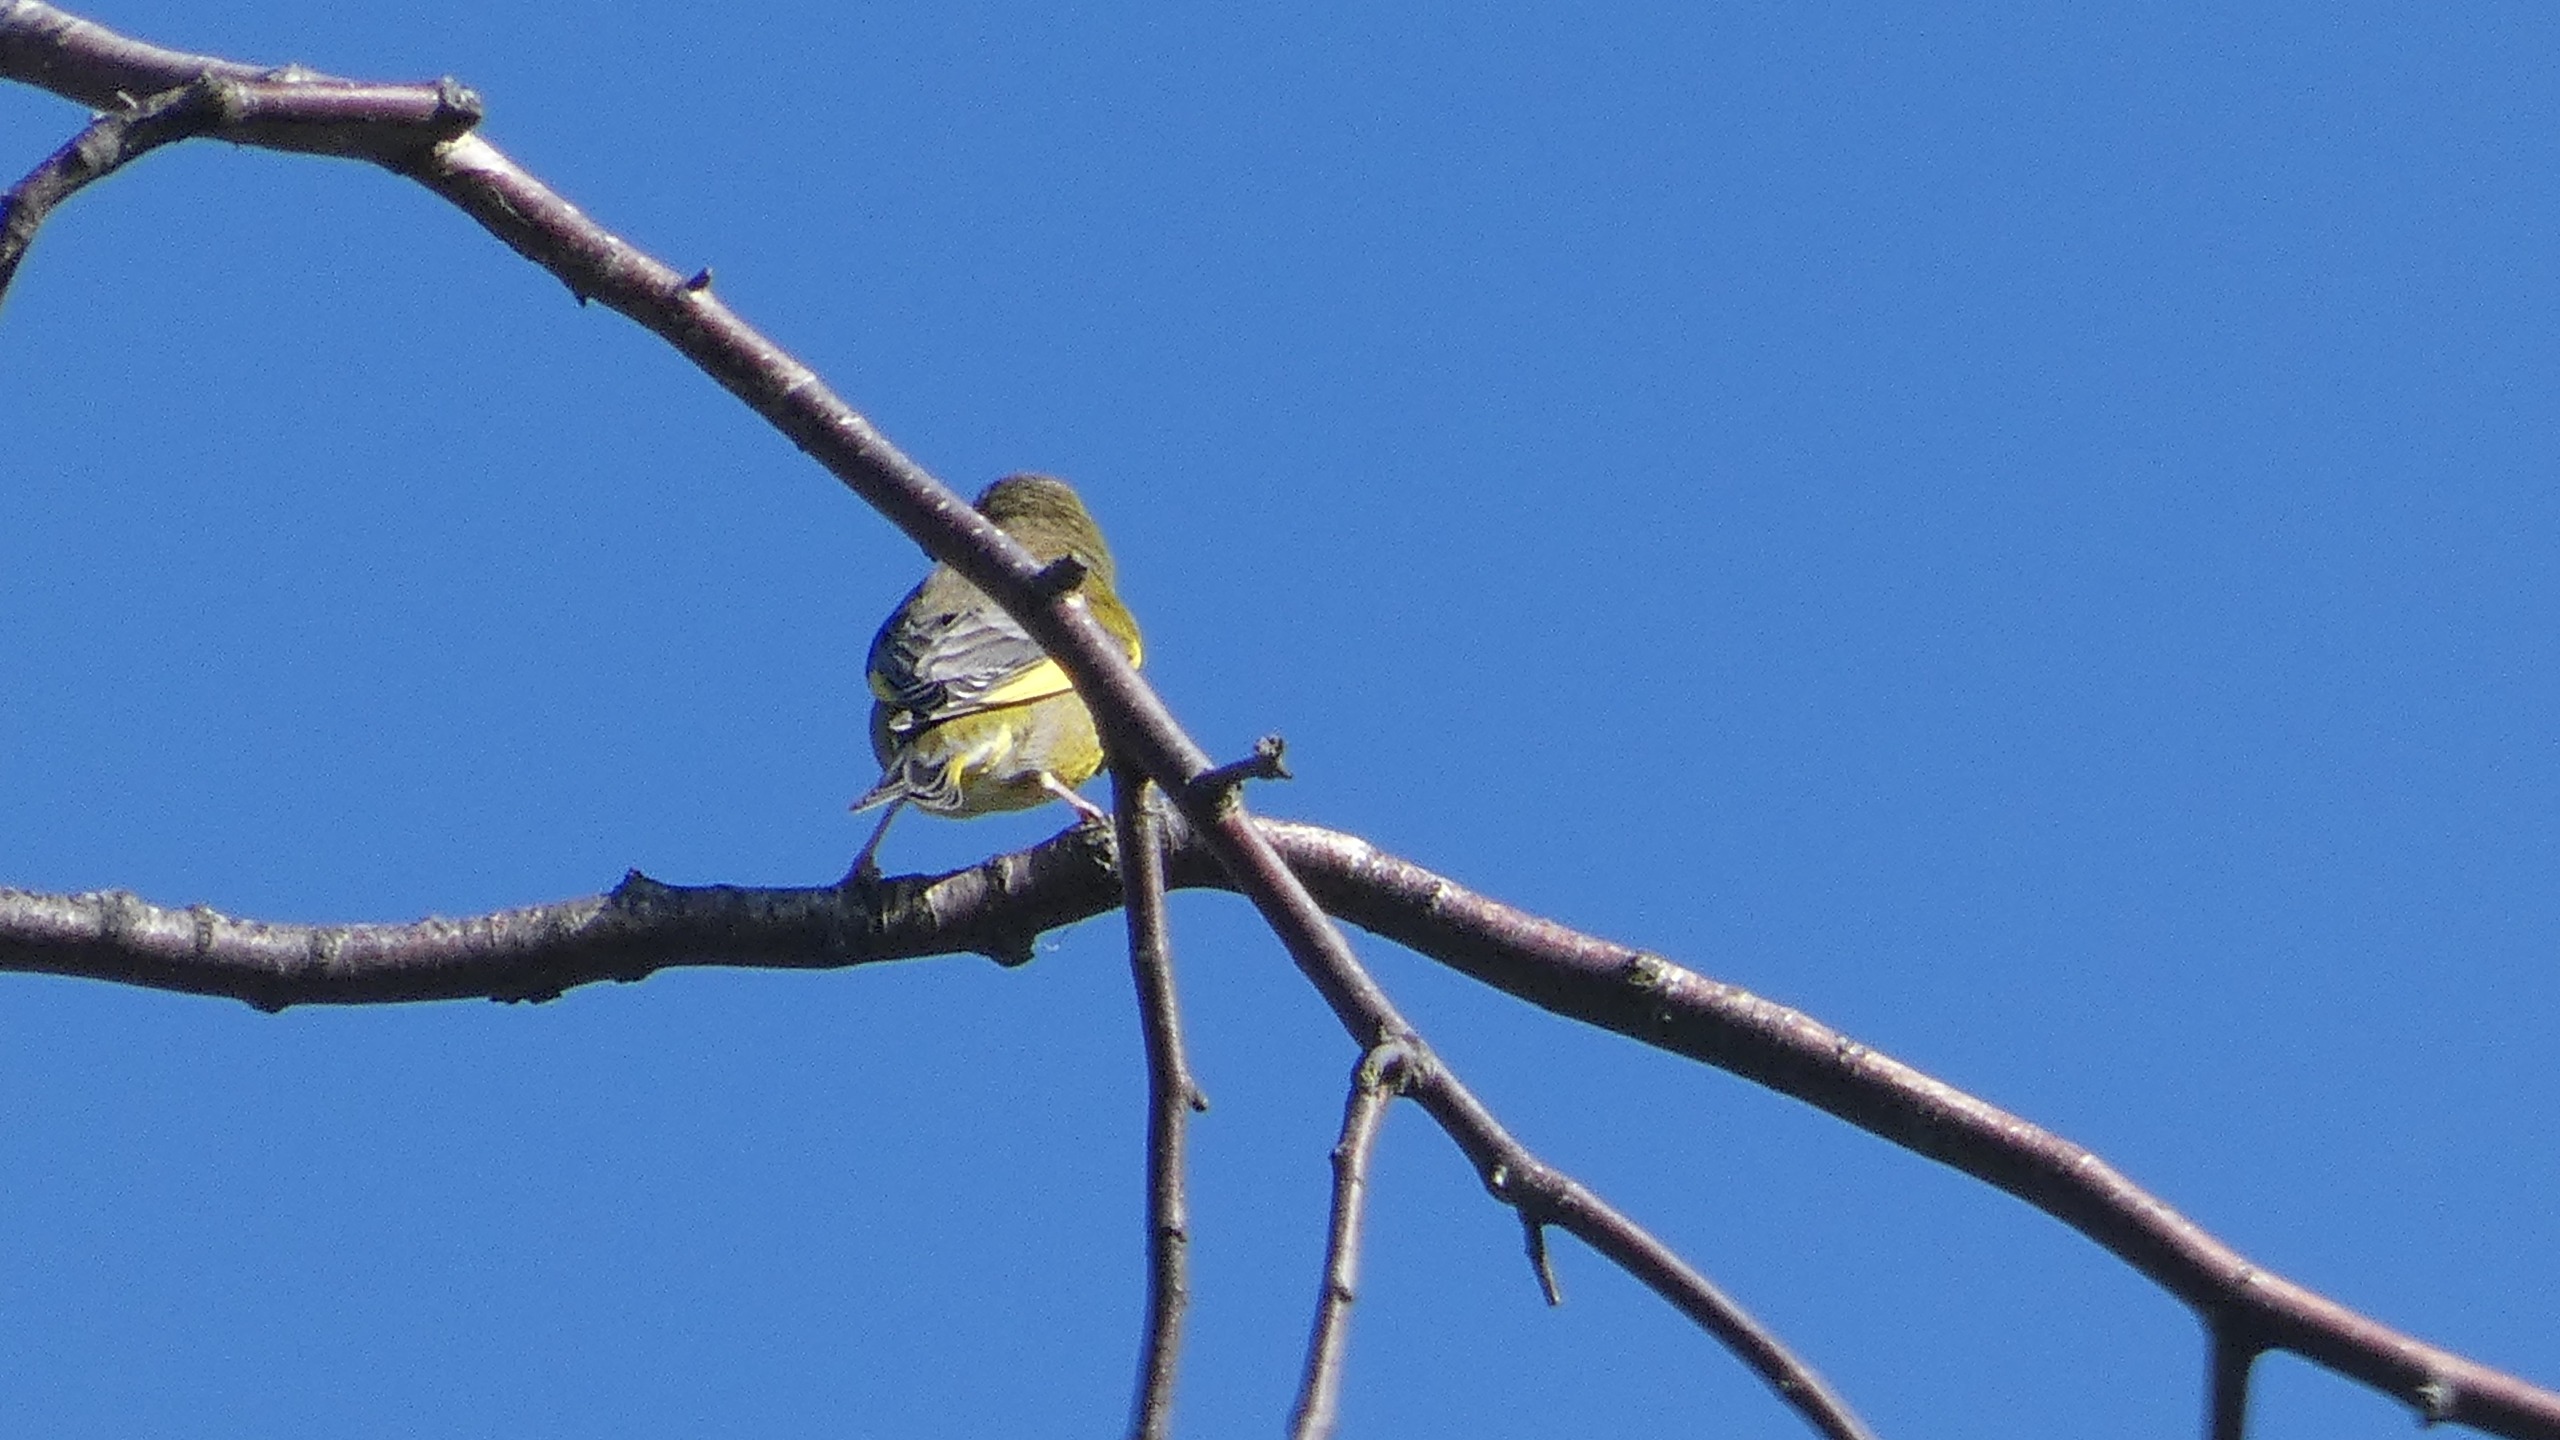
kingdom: Plantae
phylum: Tracheophyta
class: Liliopsida
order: Poales
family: Poaceae
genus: Chloris
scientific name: Chloris chloris
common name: Grønirisk
